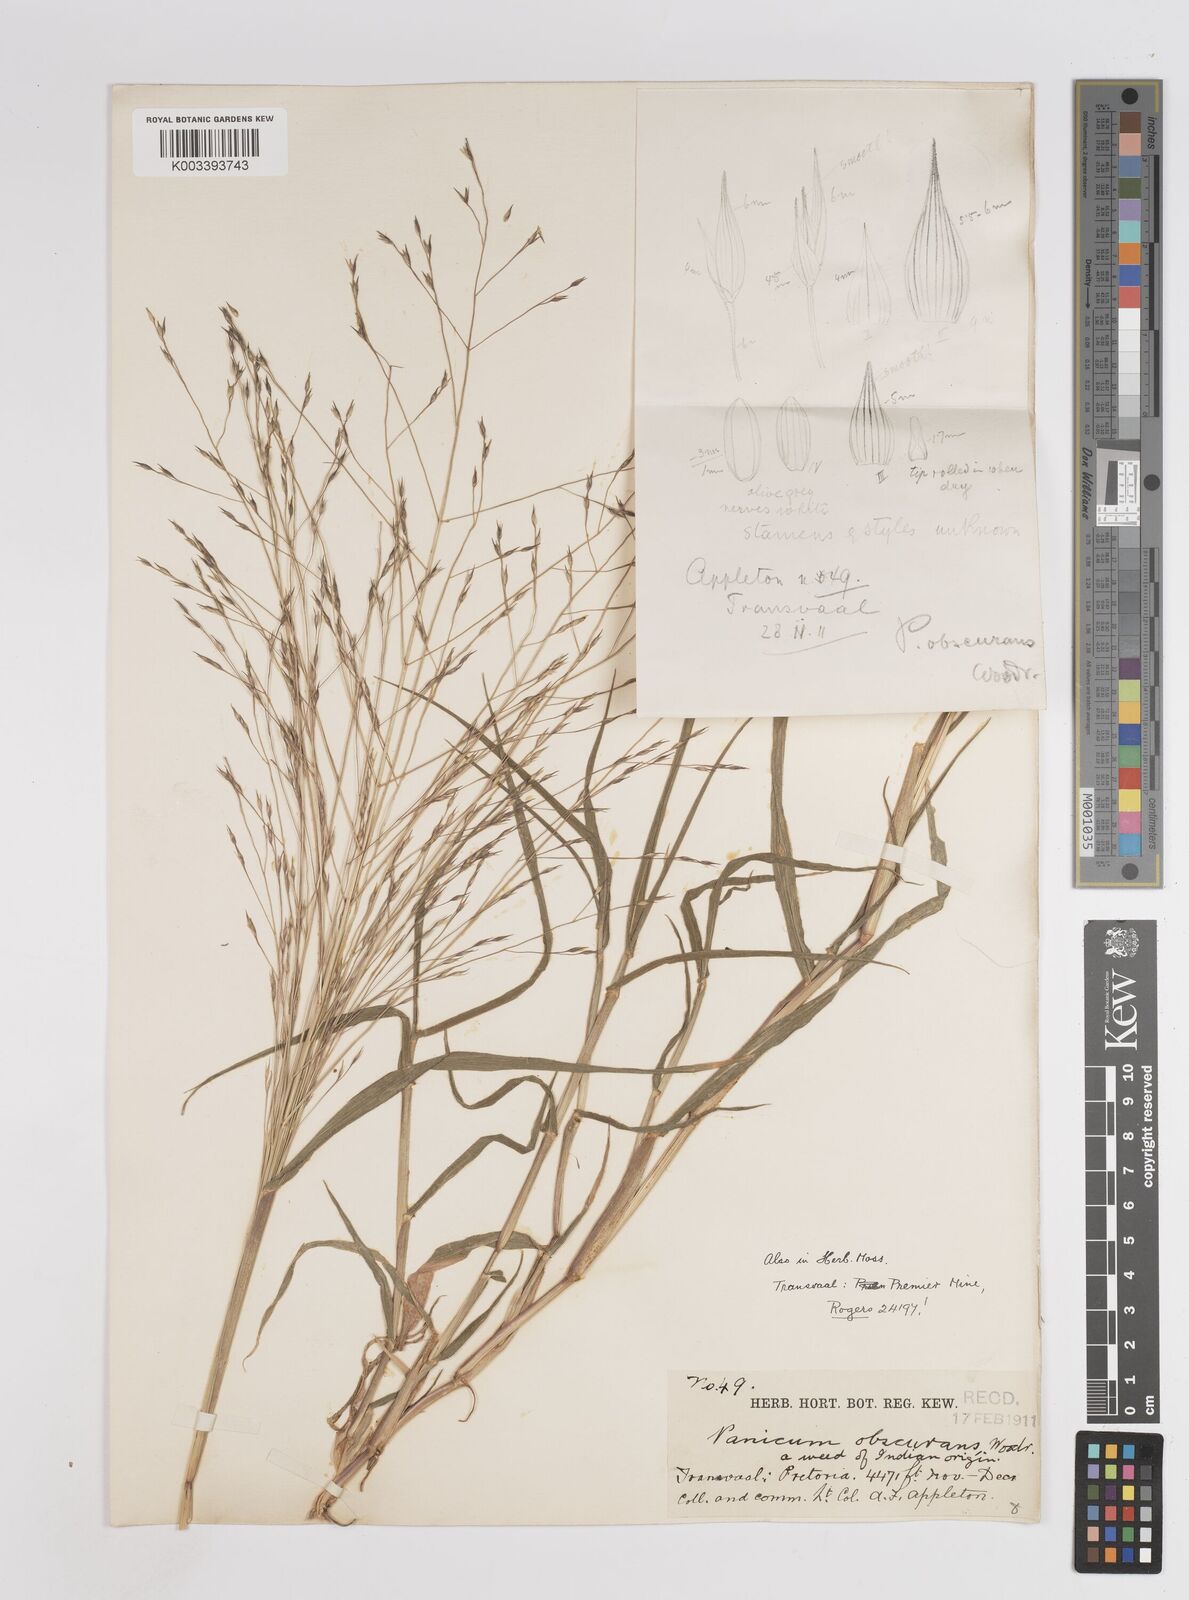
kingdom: Plantae
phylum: Tracheophyta
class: Liliopsida
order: Poales
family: Poaceae
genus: Panicum
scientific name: Panicum volutans
